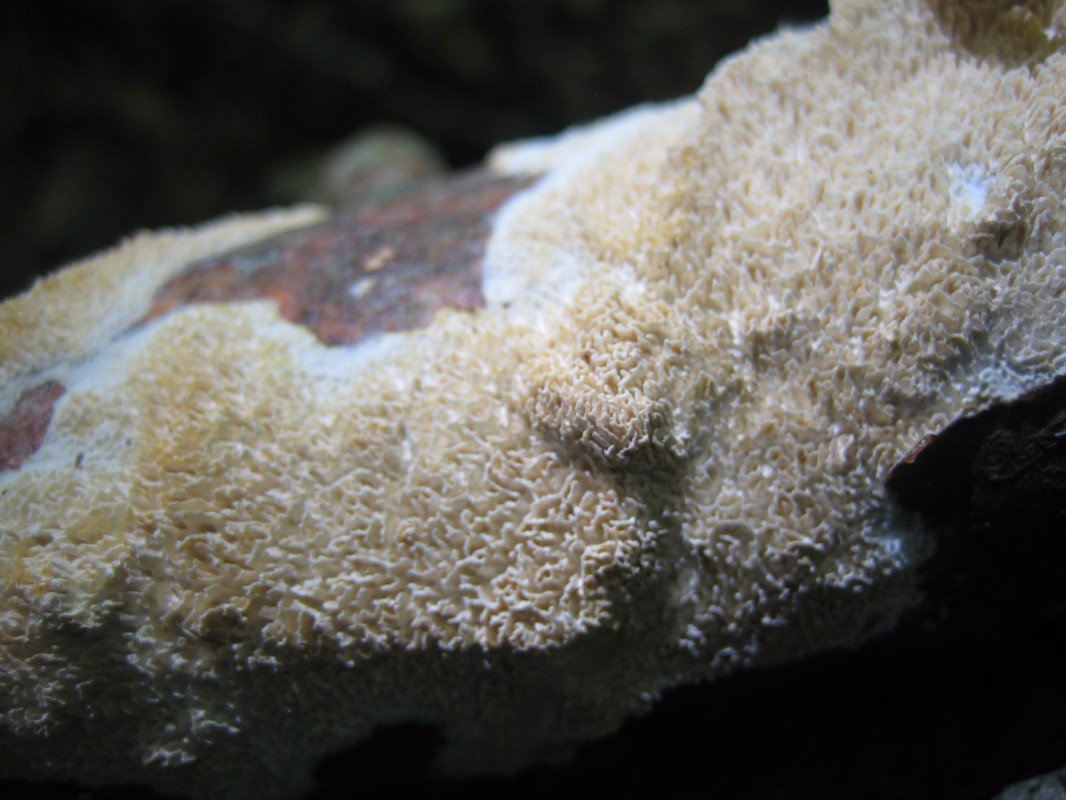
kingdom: Fungi
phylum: Basidiomycota
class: Agaricomycetes
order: Hymenochaetales
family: Schizoporaceae
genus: Schizopora
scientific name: Schizopora paradoxa
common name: hvid tandsvamp
